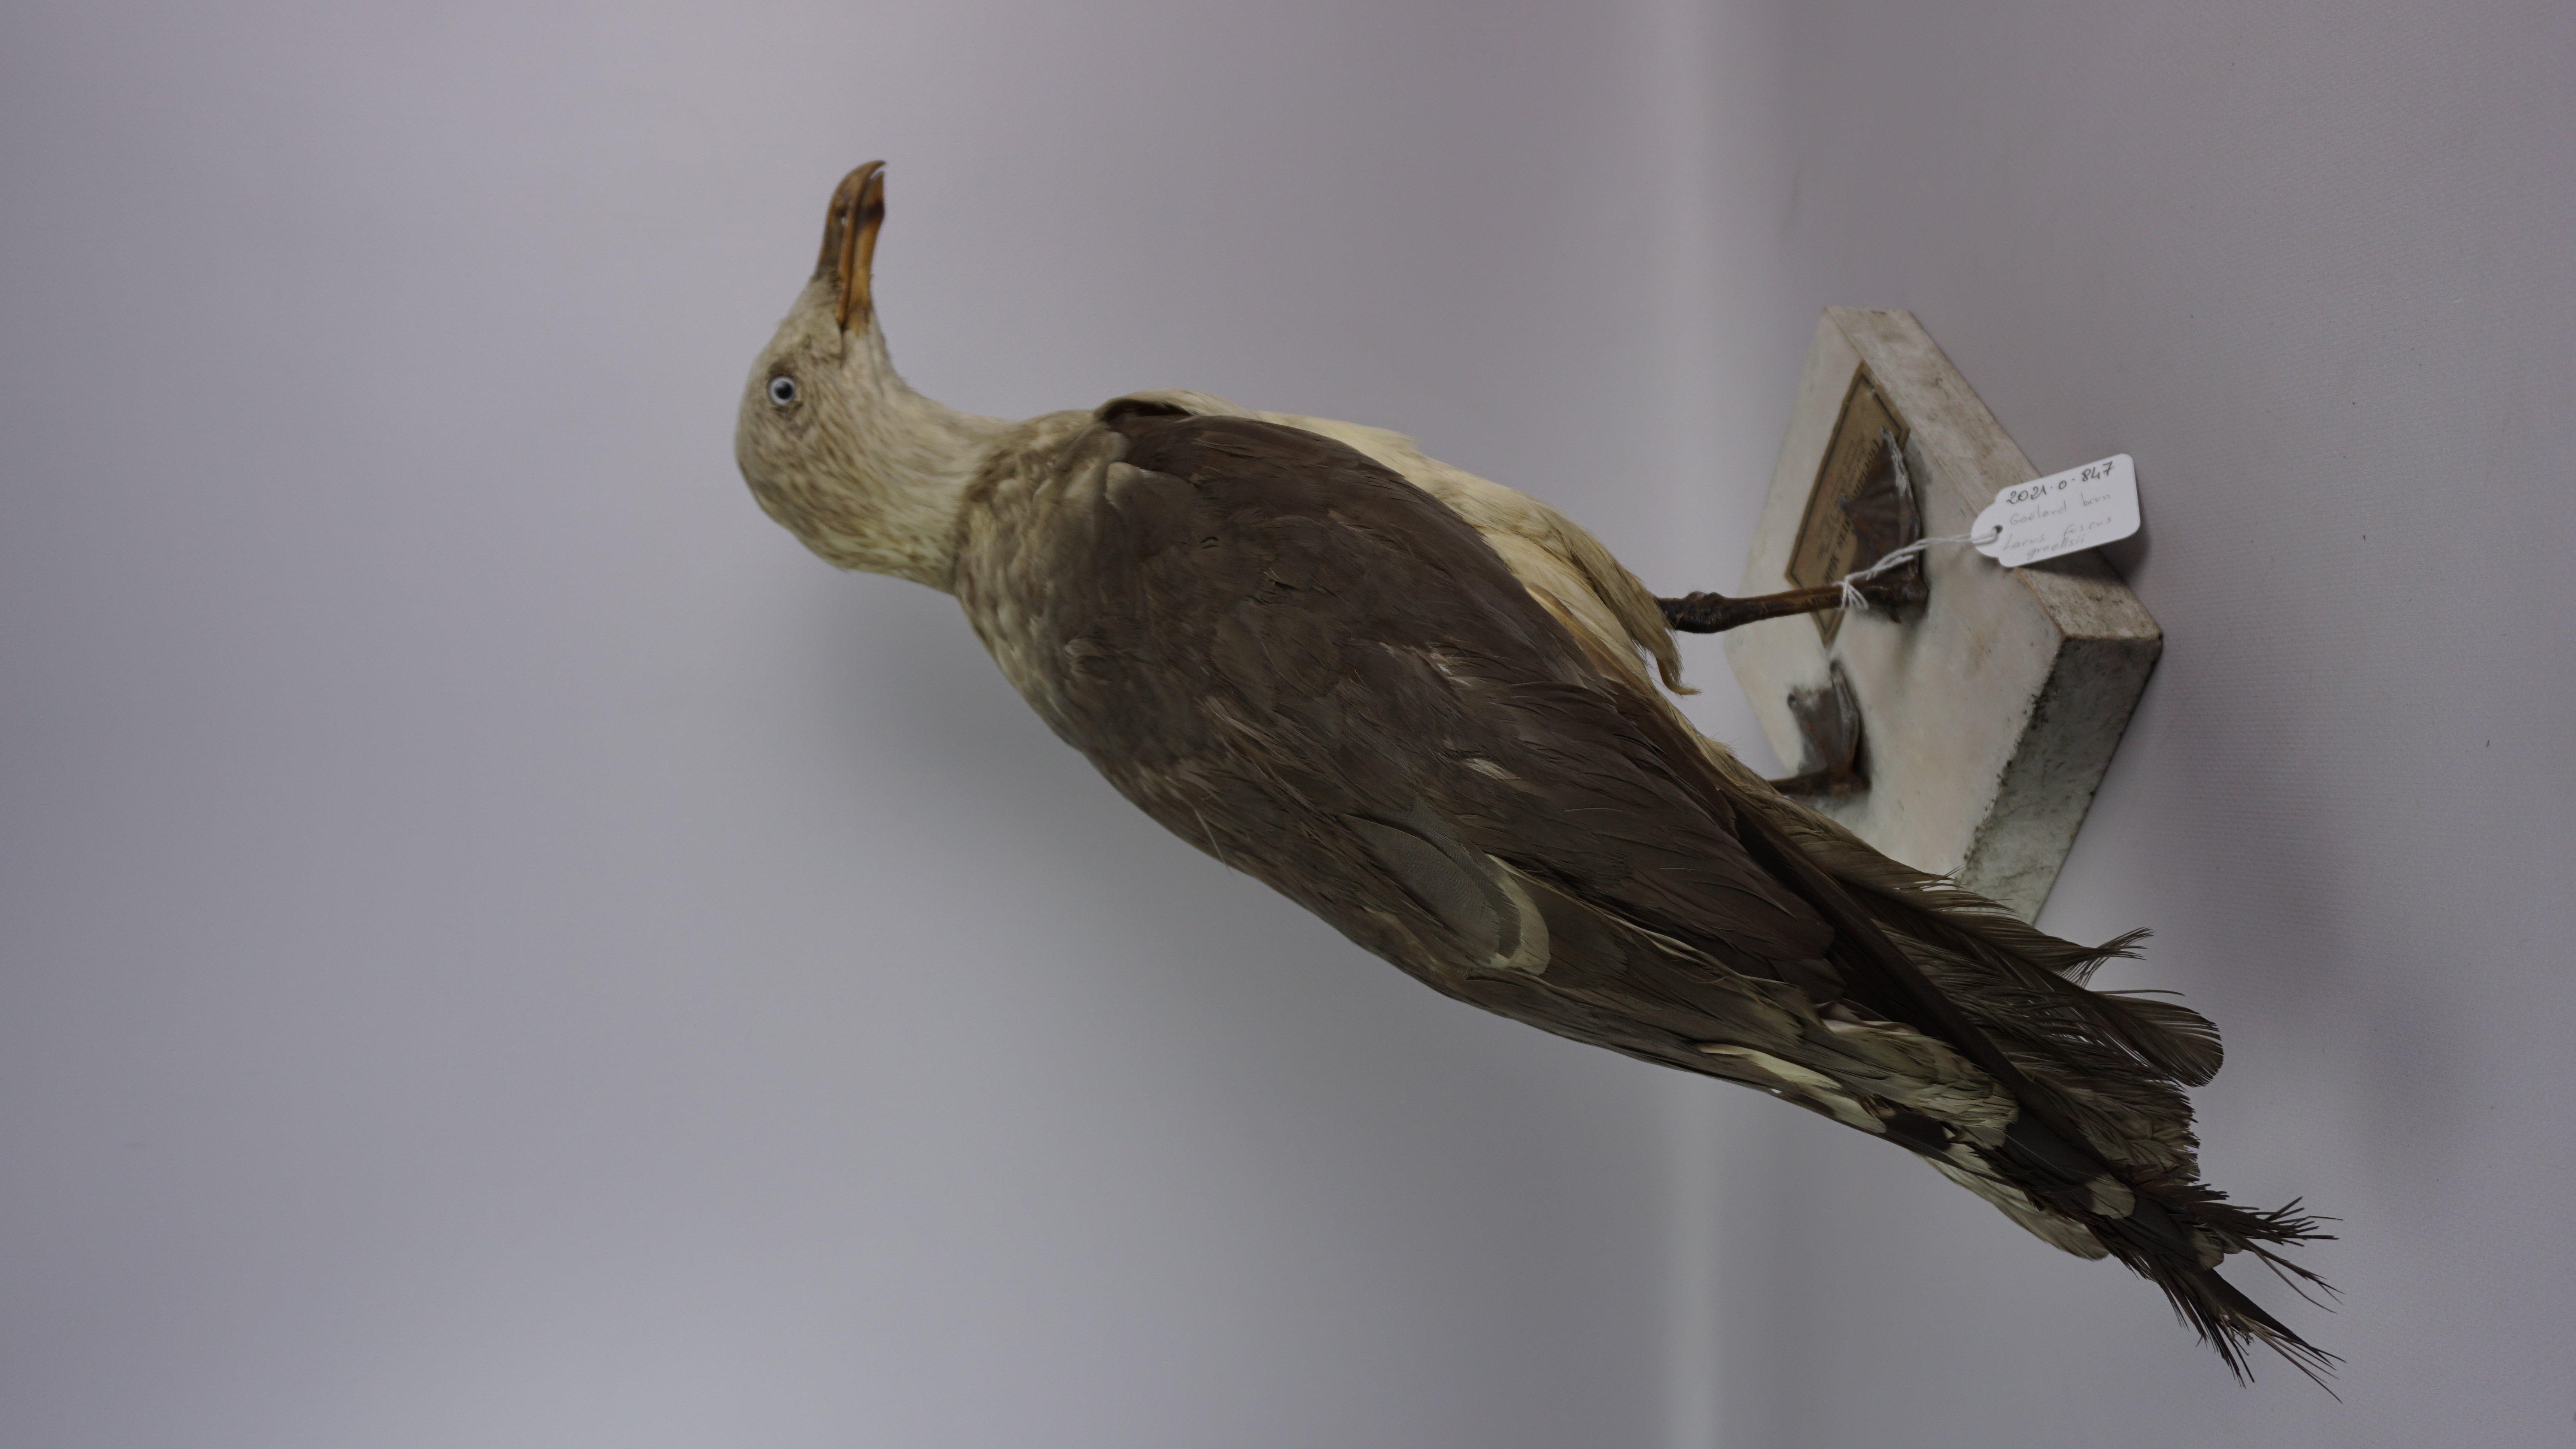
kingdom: Animalia
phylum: Chordata
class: Aves
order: Charadriiformes
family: Laridae
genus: Larus
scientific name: Larus fuscus
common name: Lesser black-backed gull
